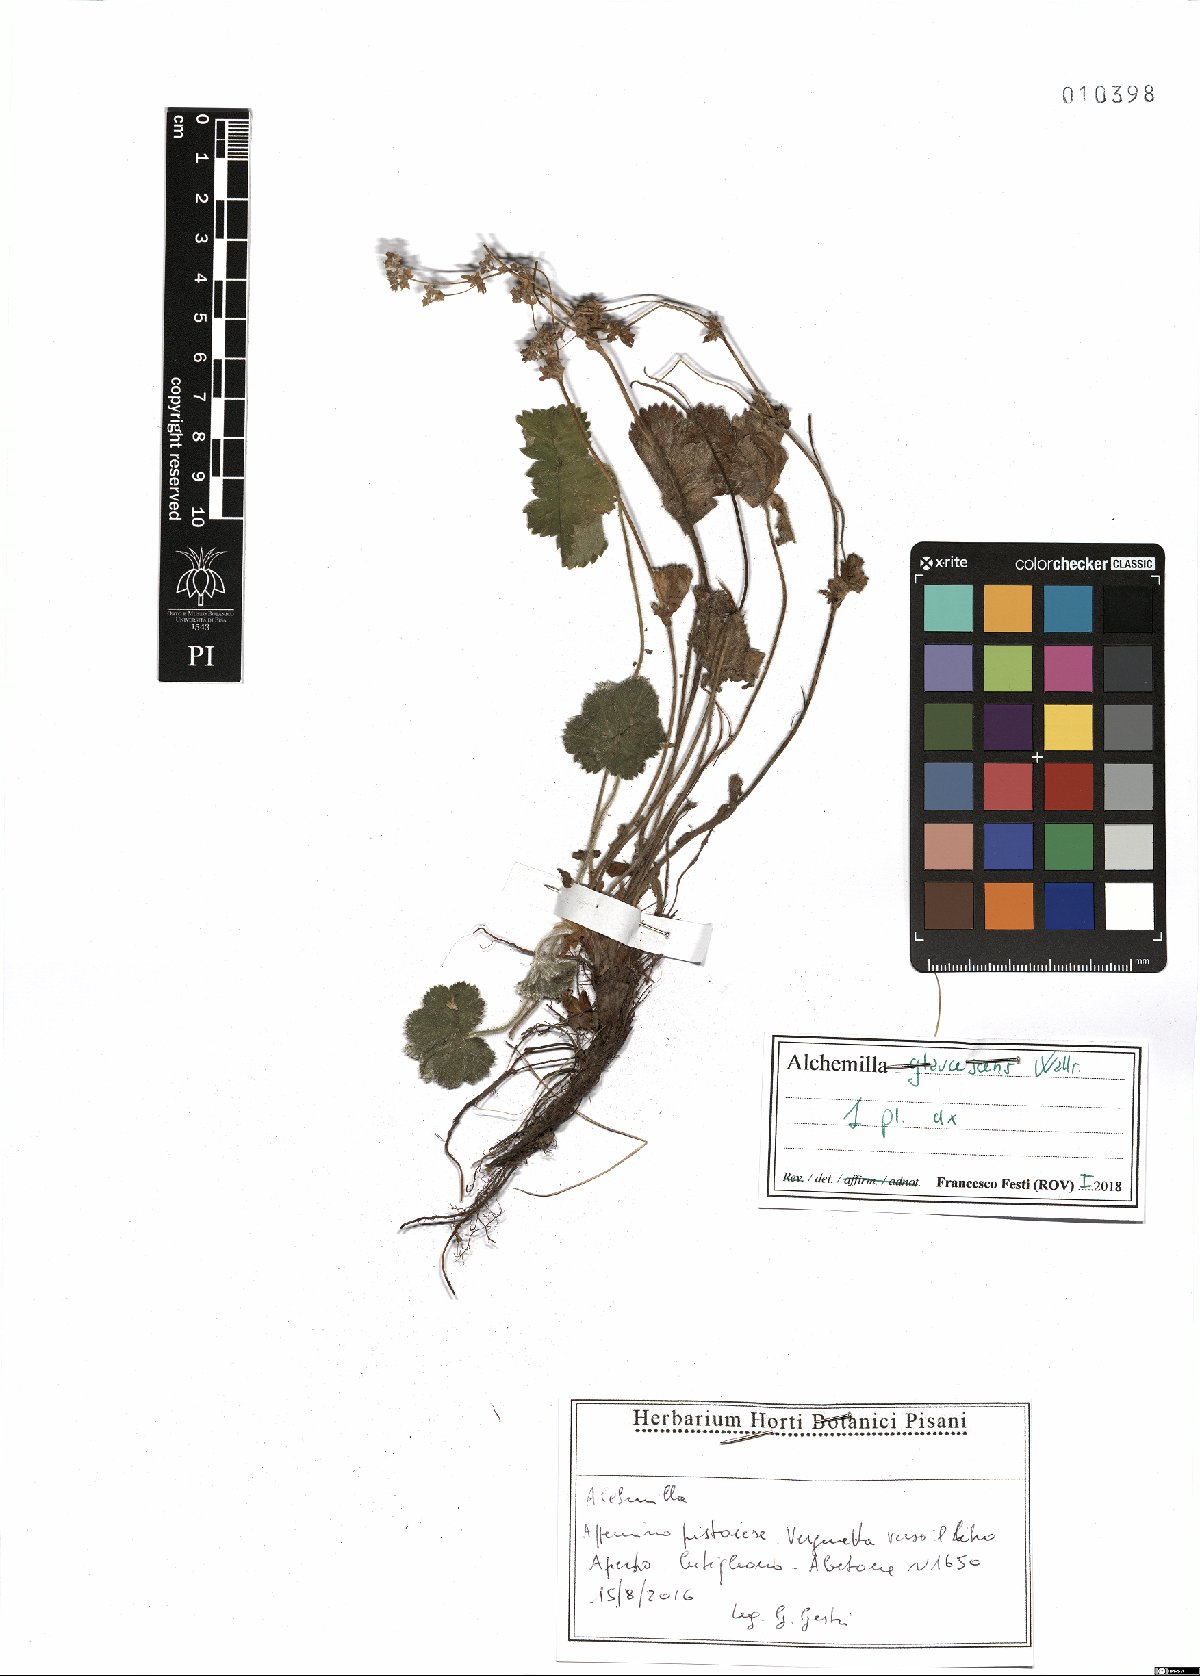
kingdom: Plantae
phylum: Tracheophyta
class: Magnoliopsida
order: Rosales
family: Rosaceae
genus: Alchemilla
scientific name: Alchemilla glaucescens
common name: Silky lady's mantle
